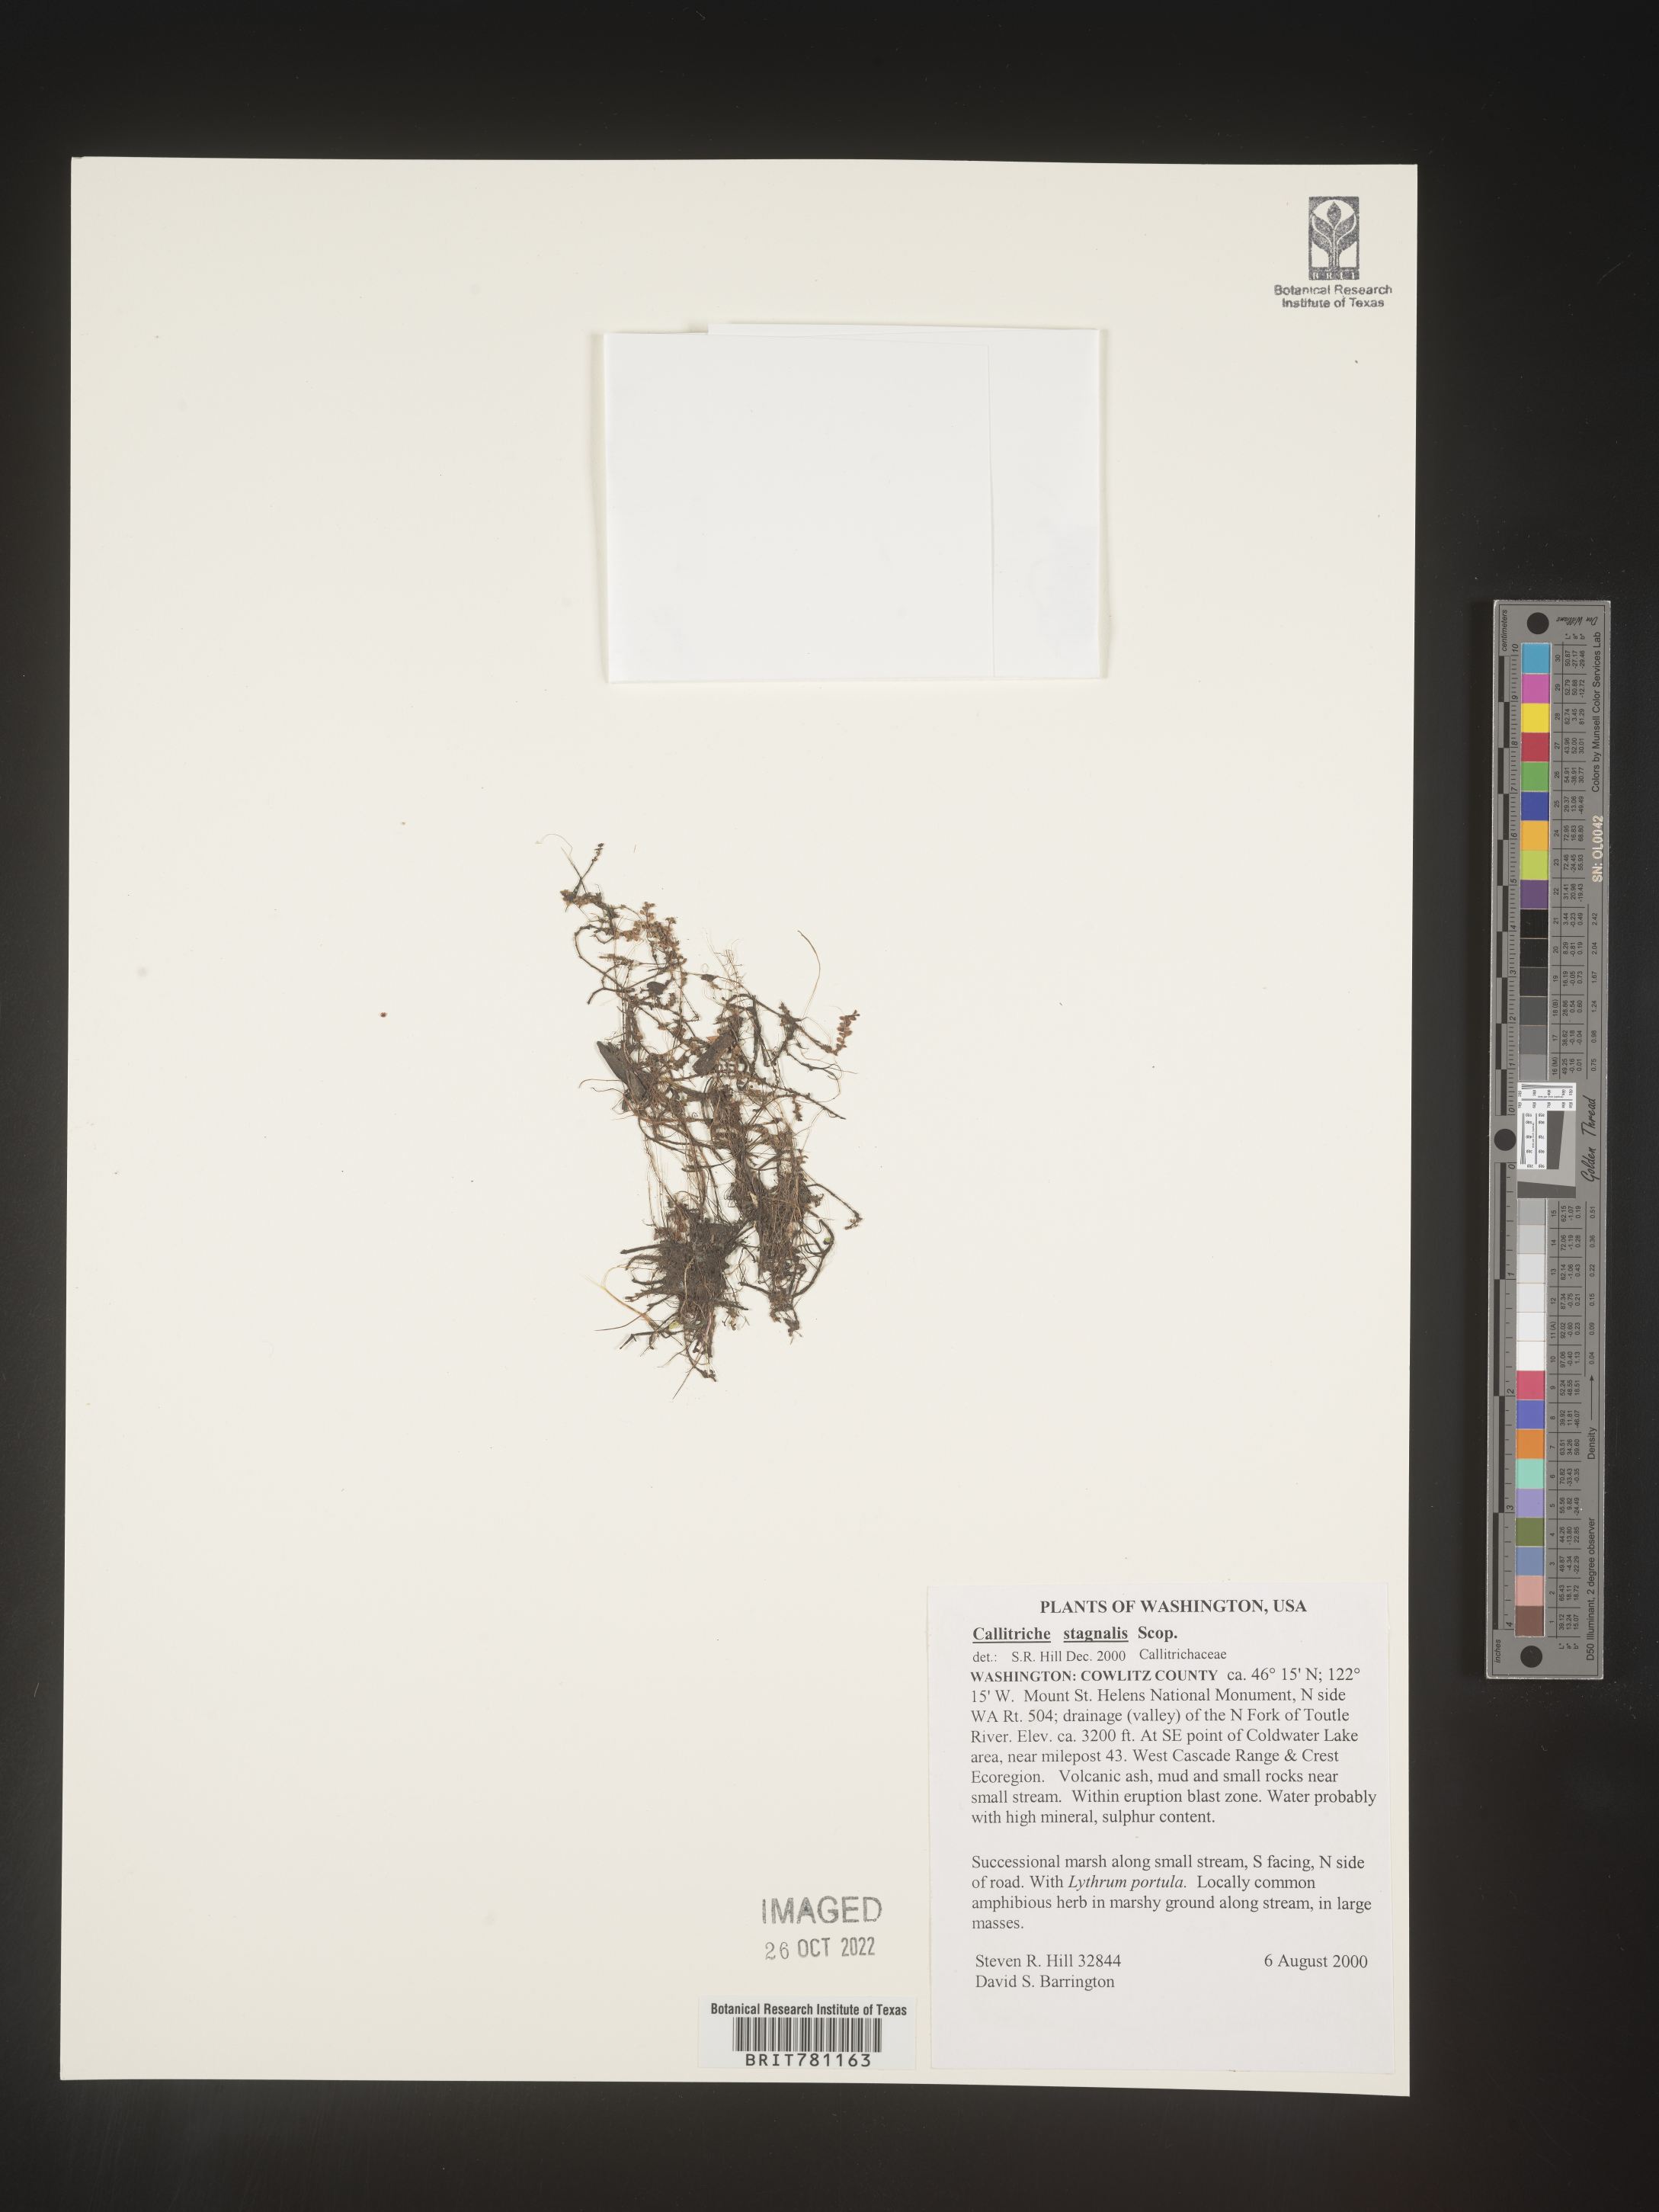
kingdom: Plantae
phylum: Tracheophyta
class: Magnoliopsida
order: Lamiales
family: Plantaginaceae
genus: Callitriche
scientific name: Callitriche
